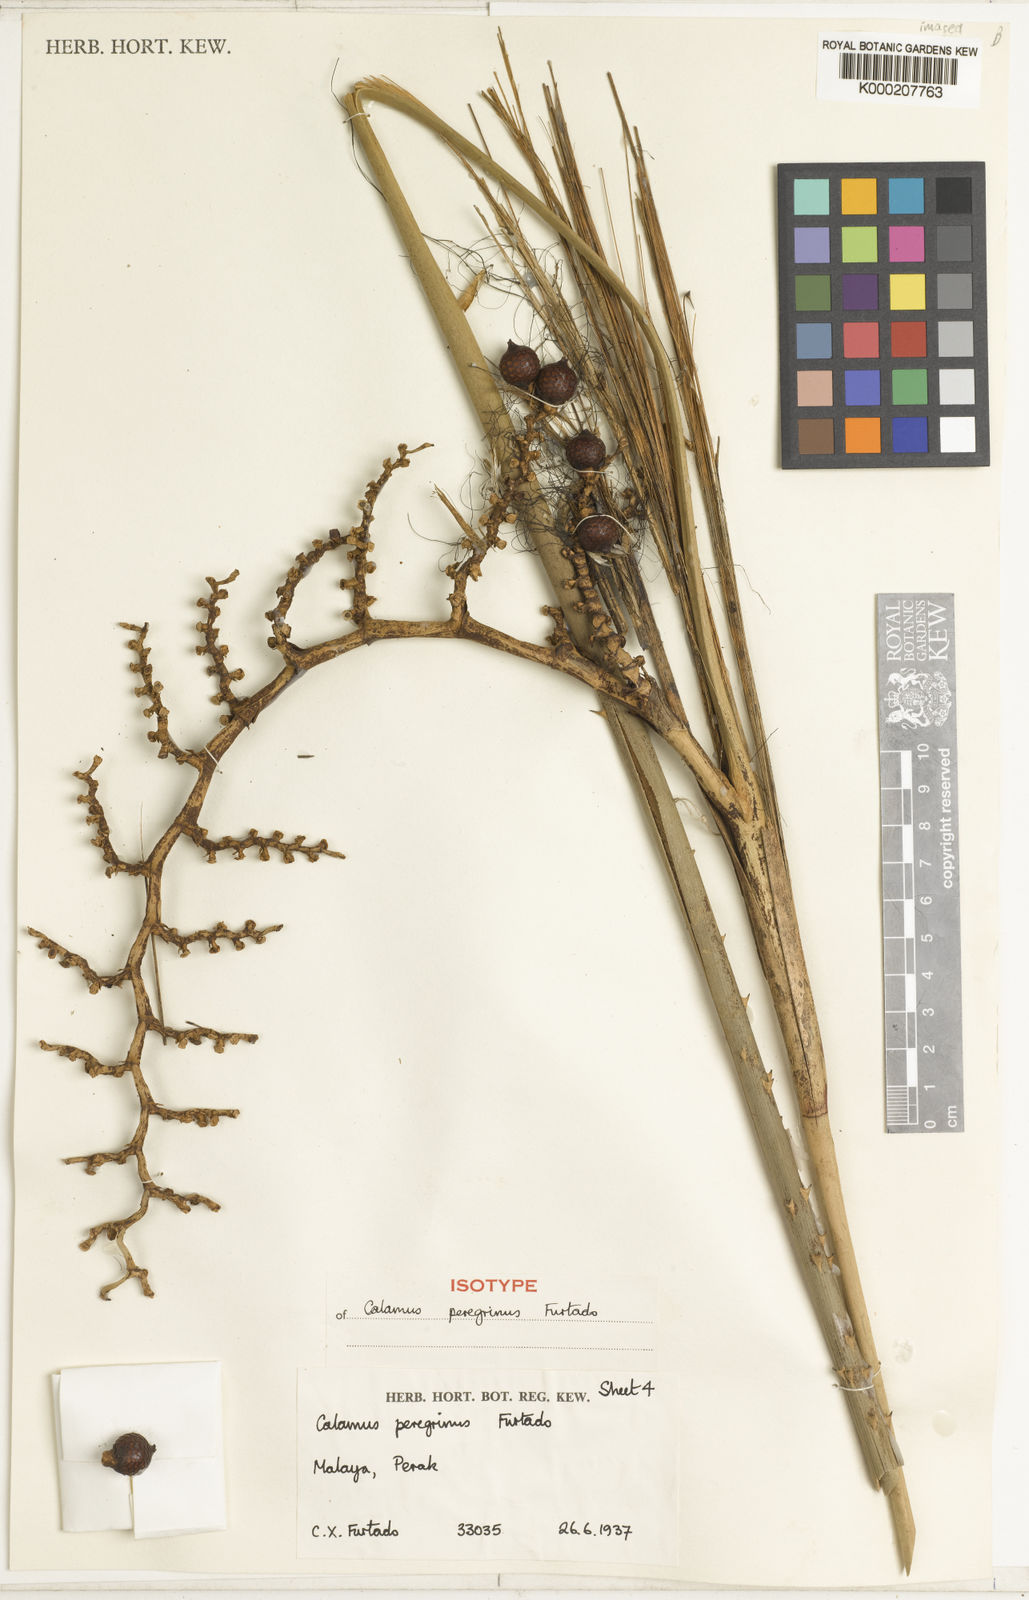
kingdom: Plantae
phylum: Tracheophyta
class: Liliopsida
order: Arecales
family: Arecaceae
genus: Calamus
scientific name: Calamus peregrinus
